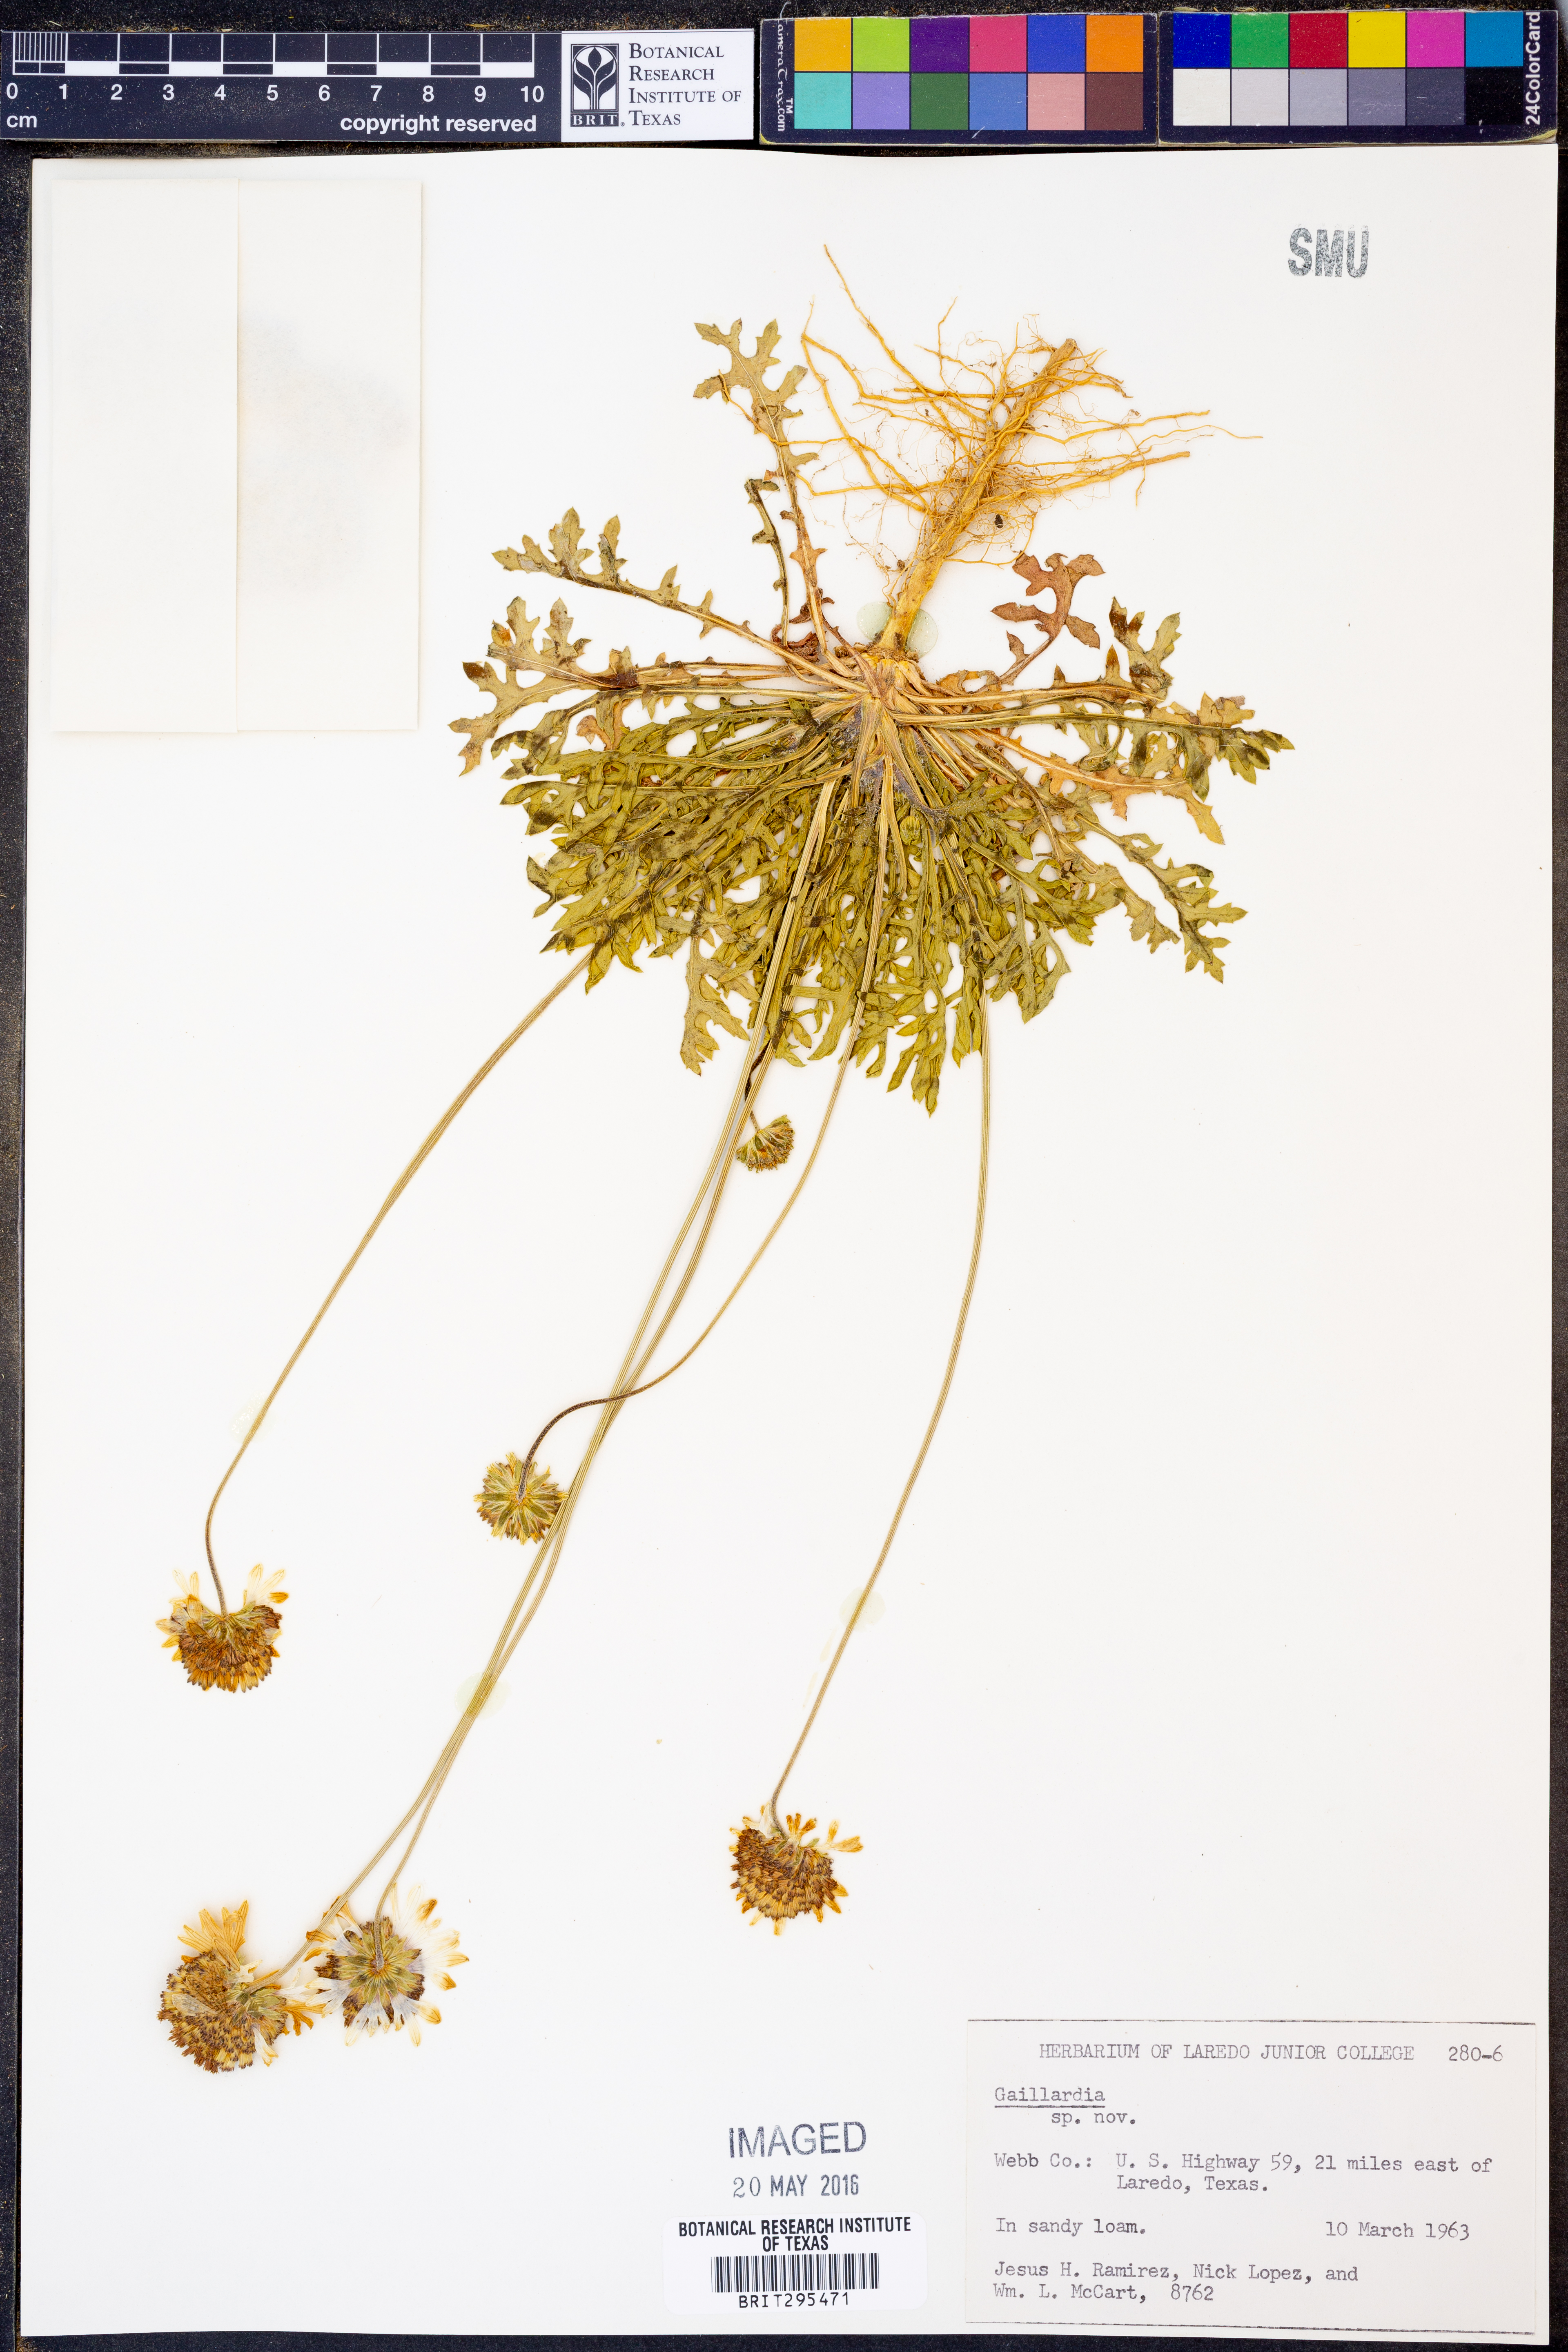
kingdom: Plantae
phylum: Tracheophyta
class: Magnoliopsida
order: Asterales
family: Asteraceae
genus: Gaillardia
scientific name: Gaillardia
